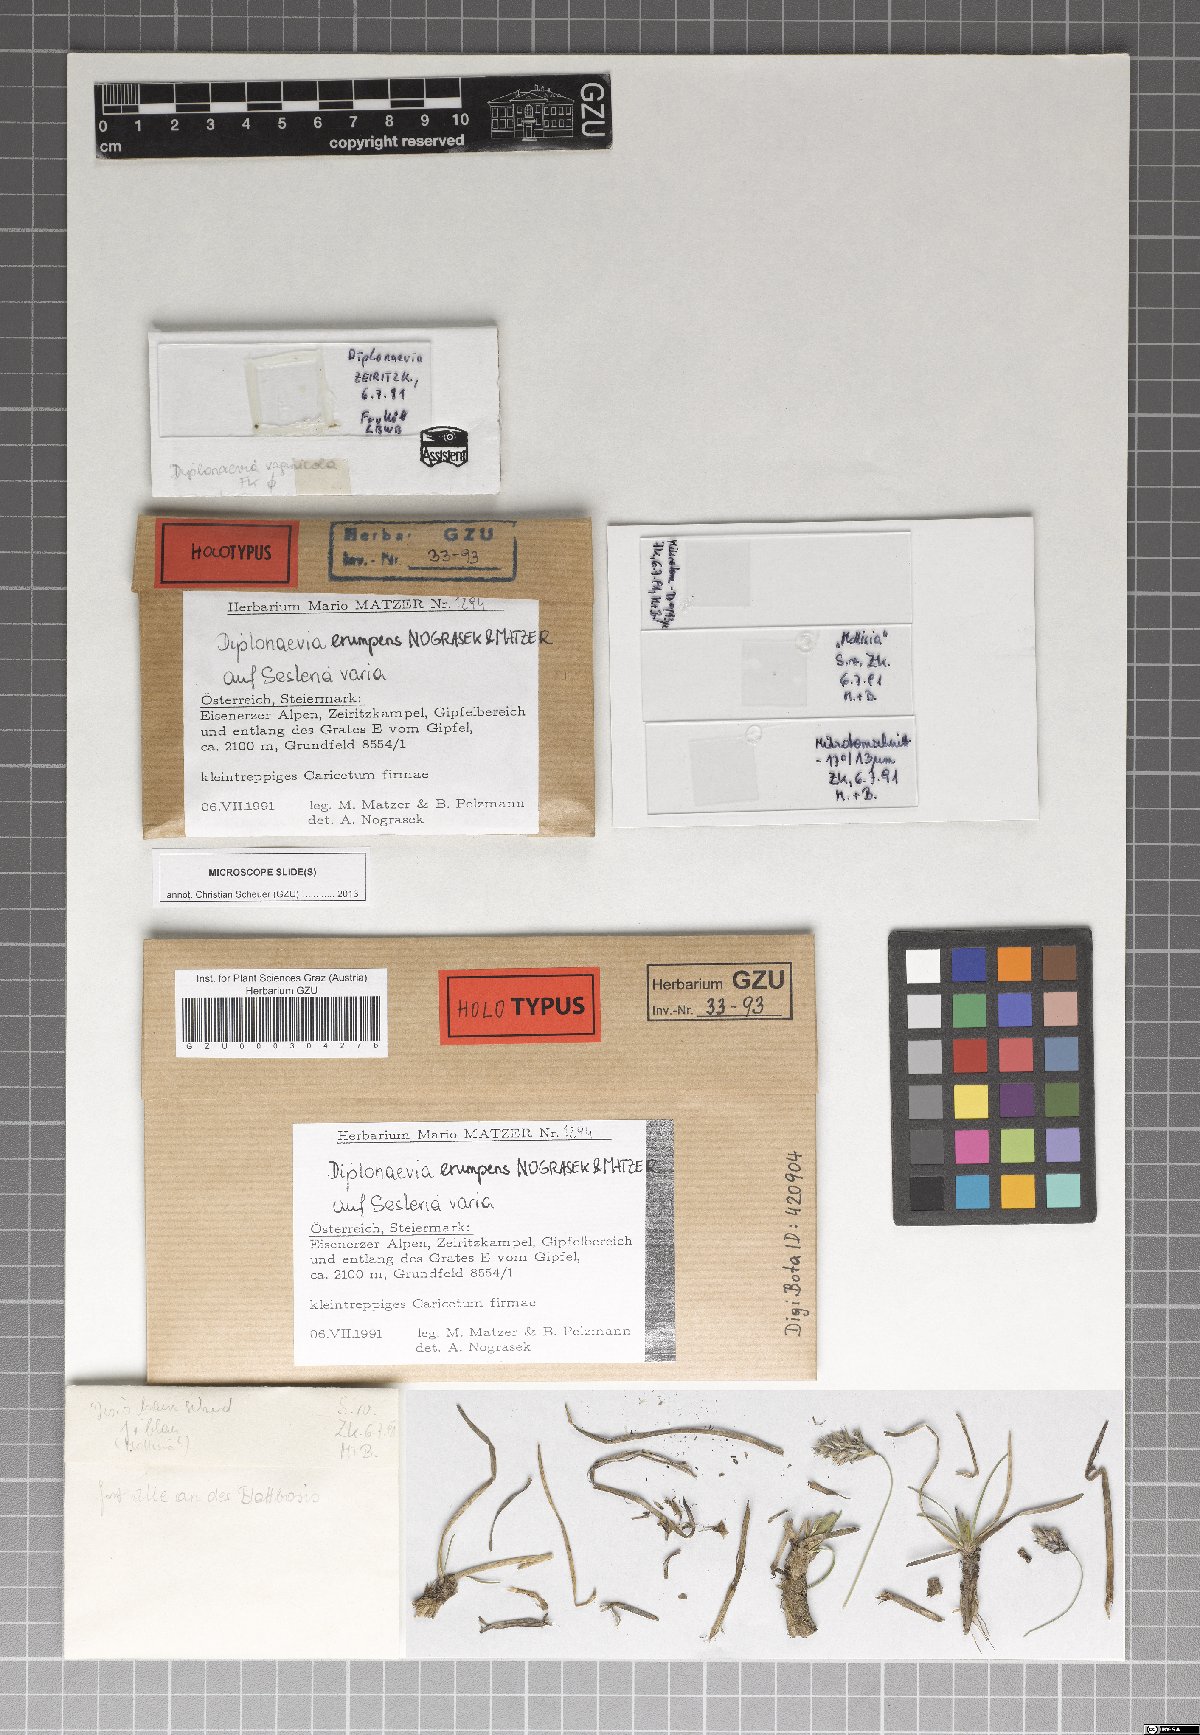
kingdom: Fungi
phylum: Ascomycota
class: Leotiomycetes
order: Helotiales
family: Calloriaceae
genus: Diplonaevia
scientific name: Diplonaevia erumpens
